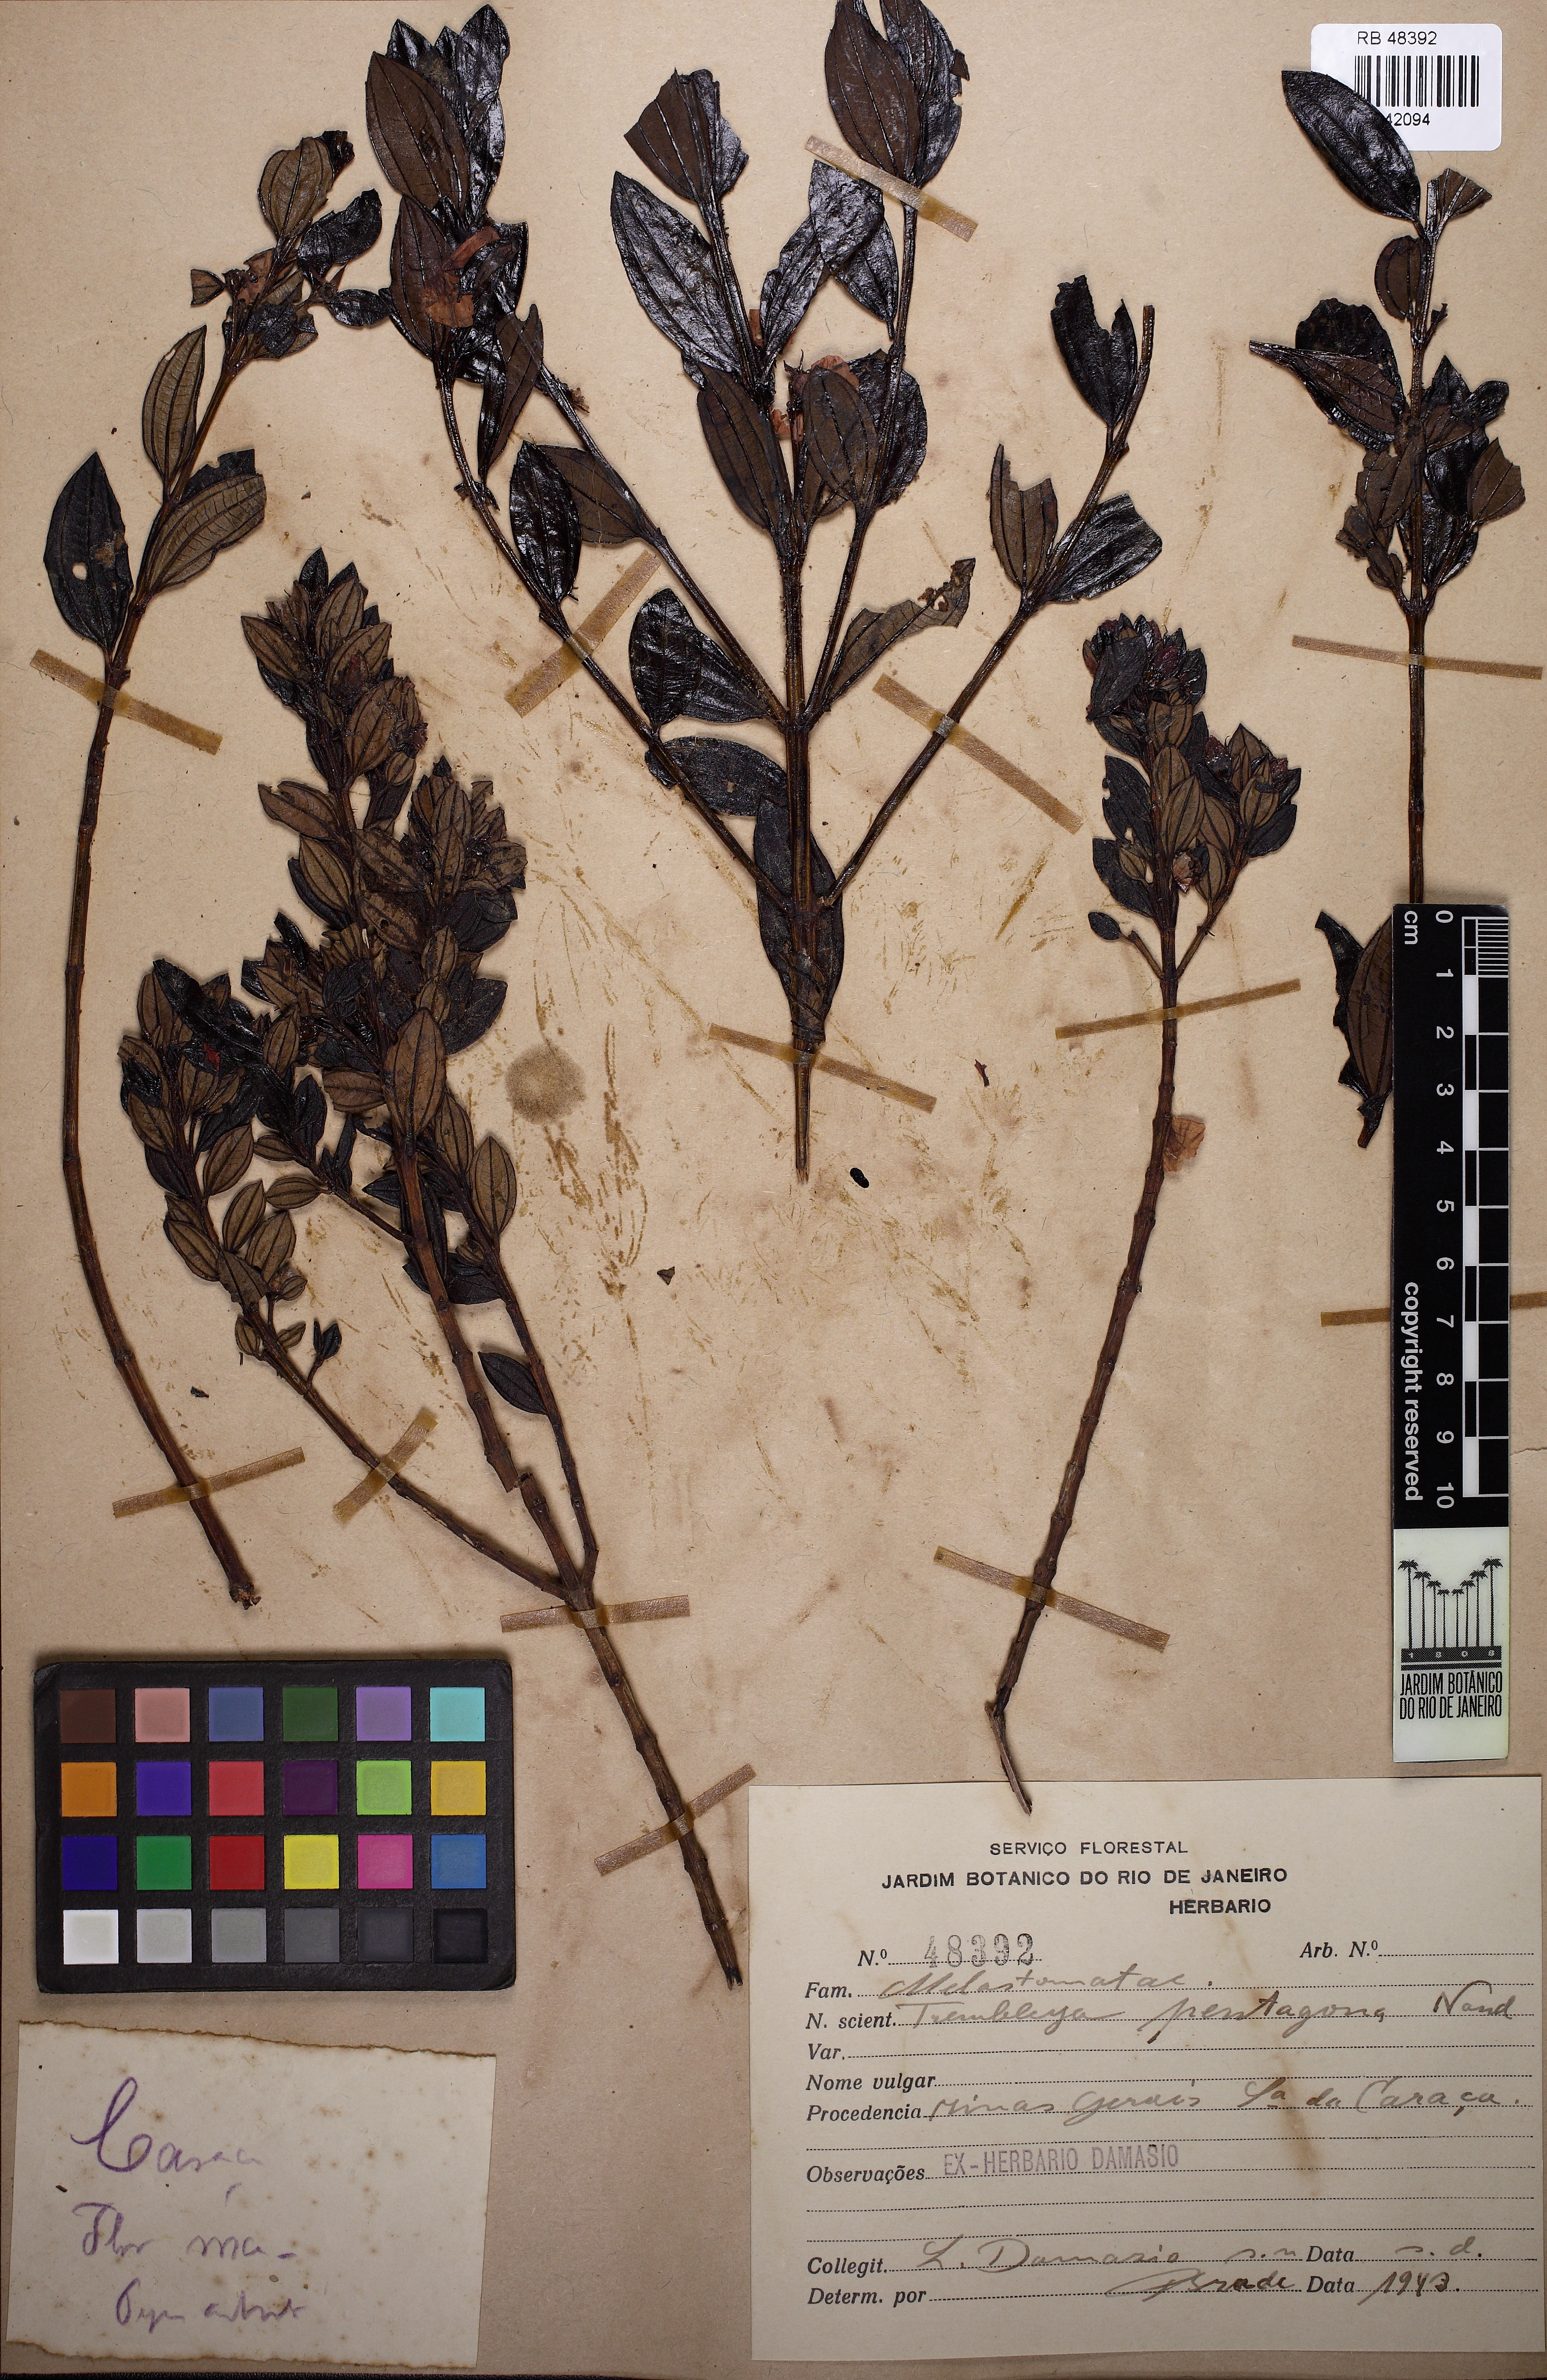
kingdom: Plantae
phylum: Tracheophyta
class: Magnoliopsida
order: Myrtales
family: Melastomataceae
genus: Microlicia
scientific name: Microlicia pentagona
